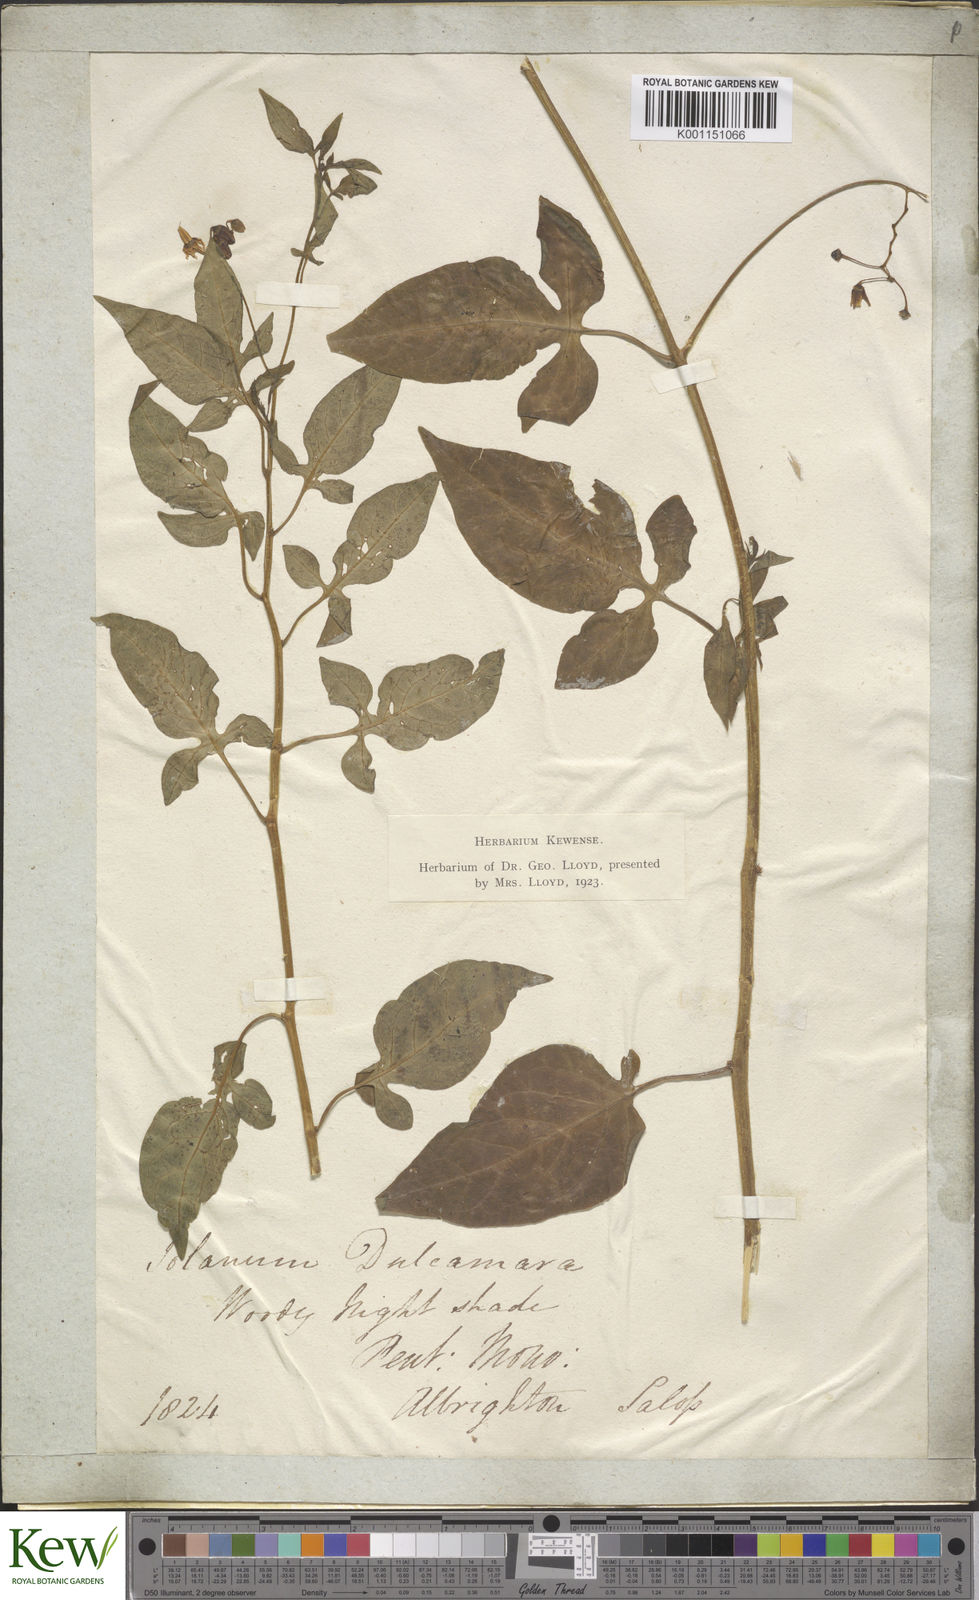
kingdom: Plantae
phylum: Tracheophyta
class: Magnoliopsida
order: Solanales
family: Solanaceae
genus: Solanum
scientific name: Solanum dulcamara
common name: Climbing nightshade
